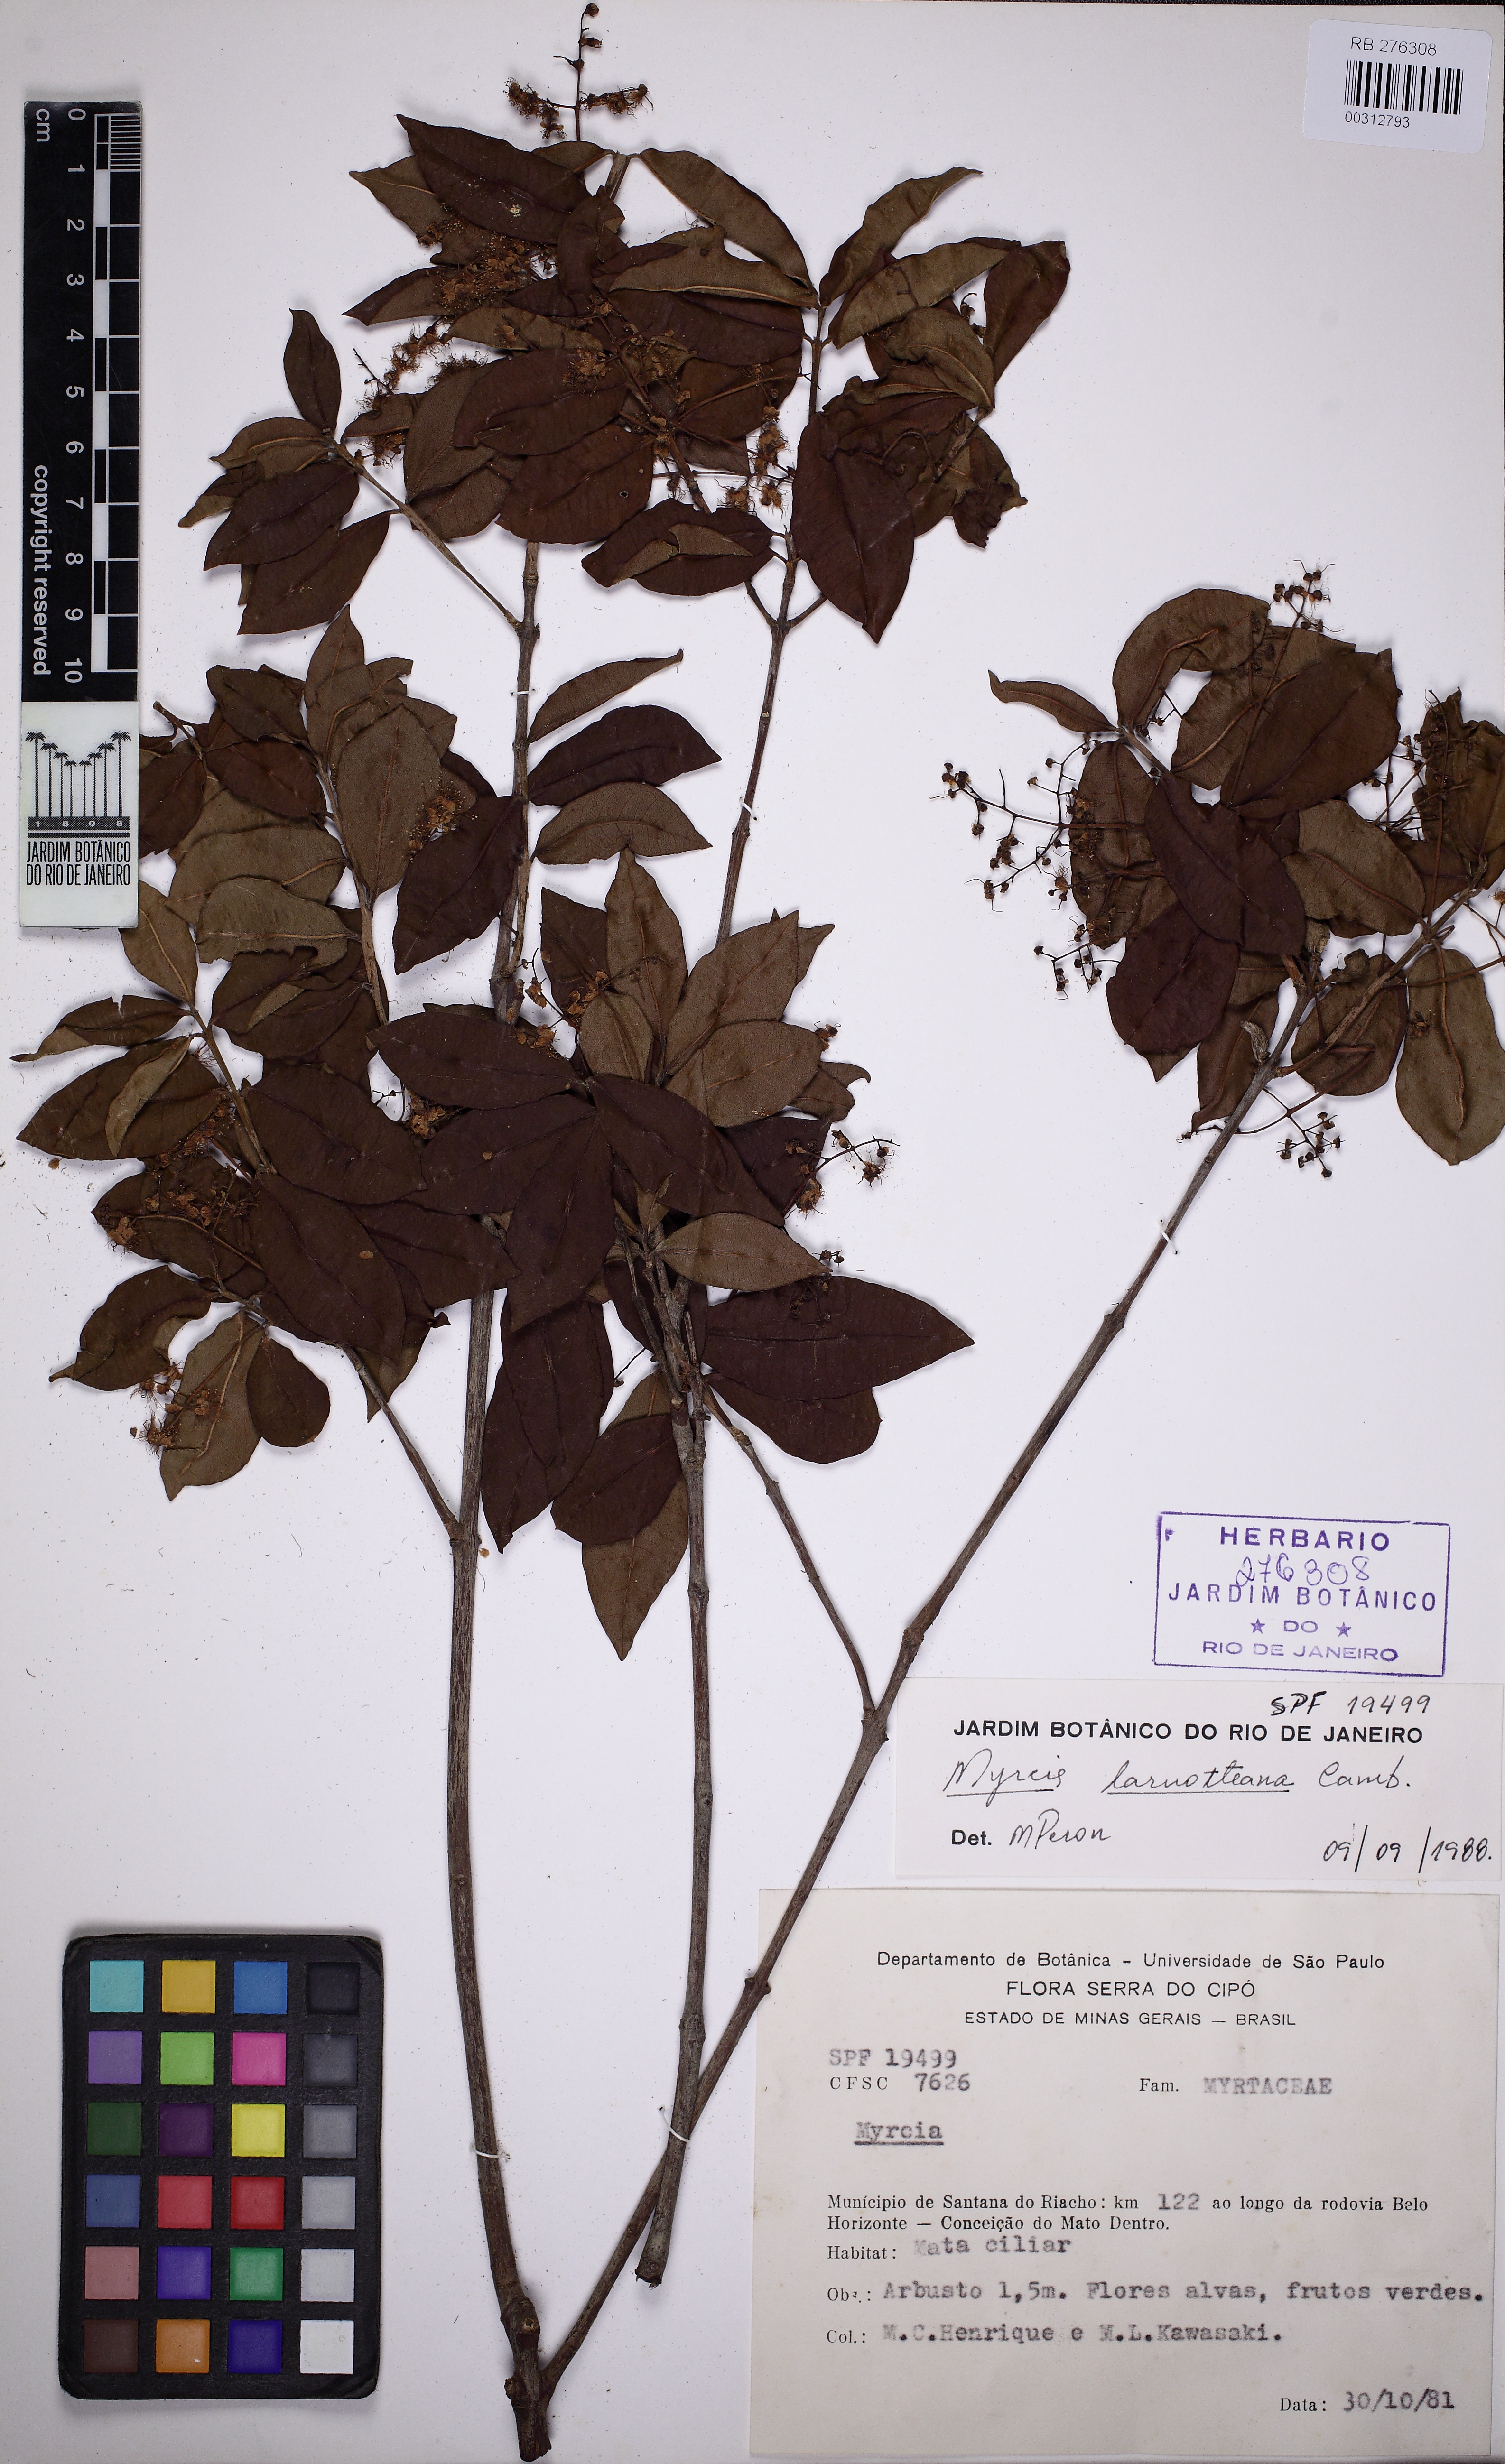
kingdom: Plantae
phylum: Tracheophyta
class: Magnoliopsida
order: Myrtales
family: Myrtaceae
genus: Myrcia
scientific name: Myrcia laruotteana
